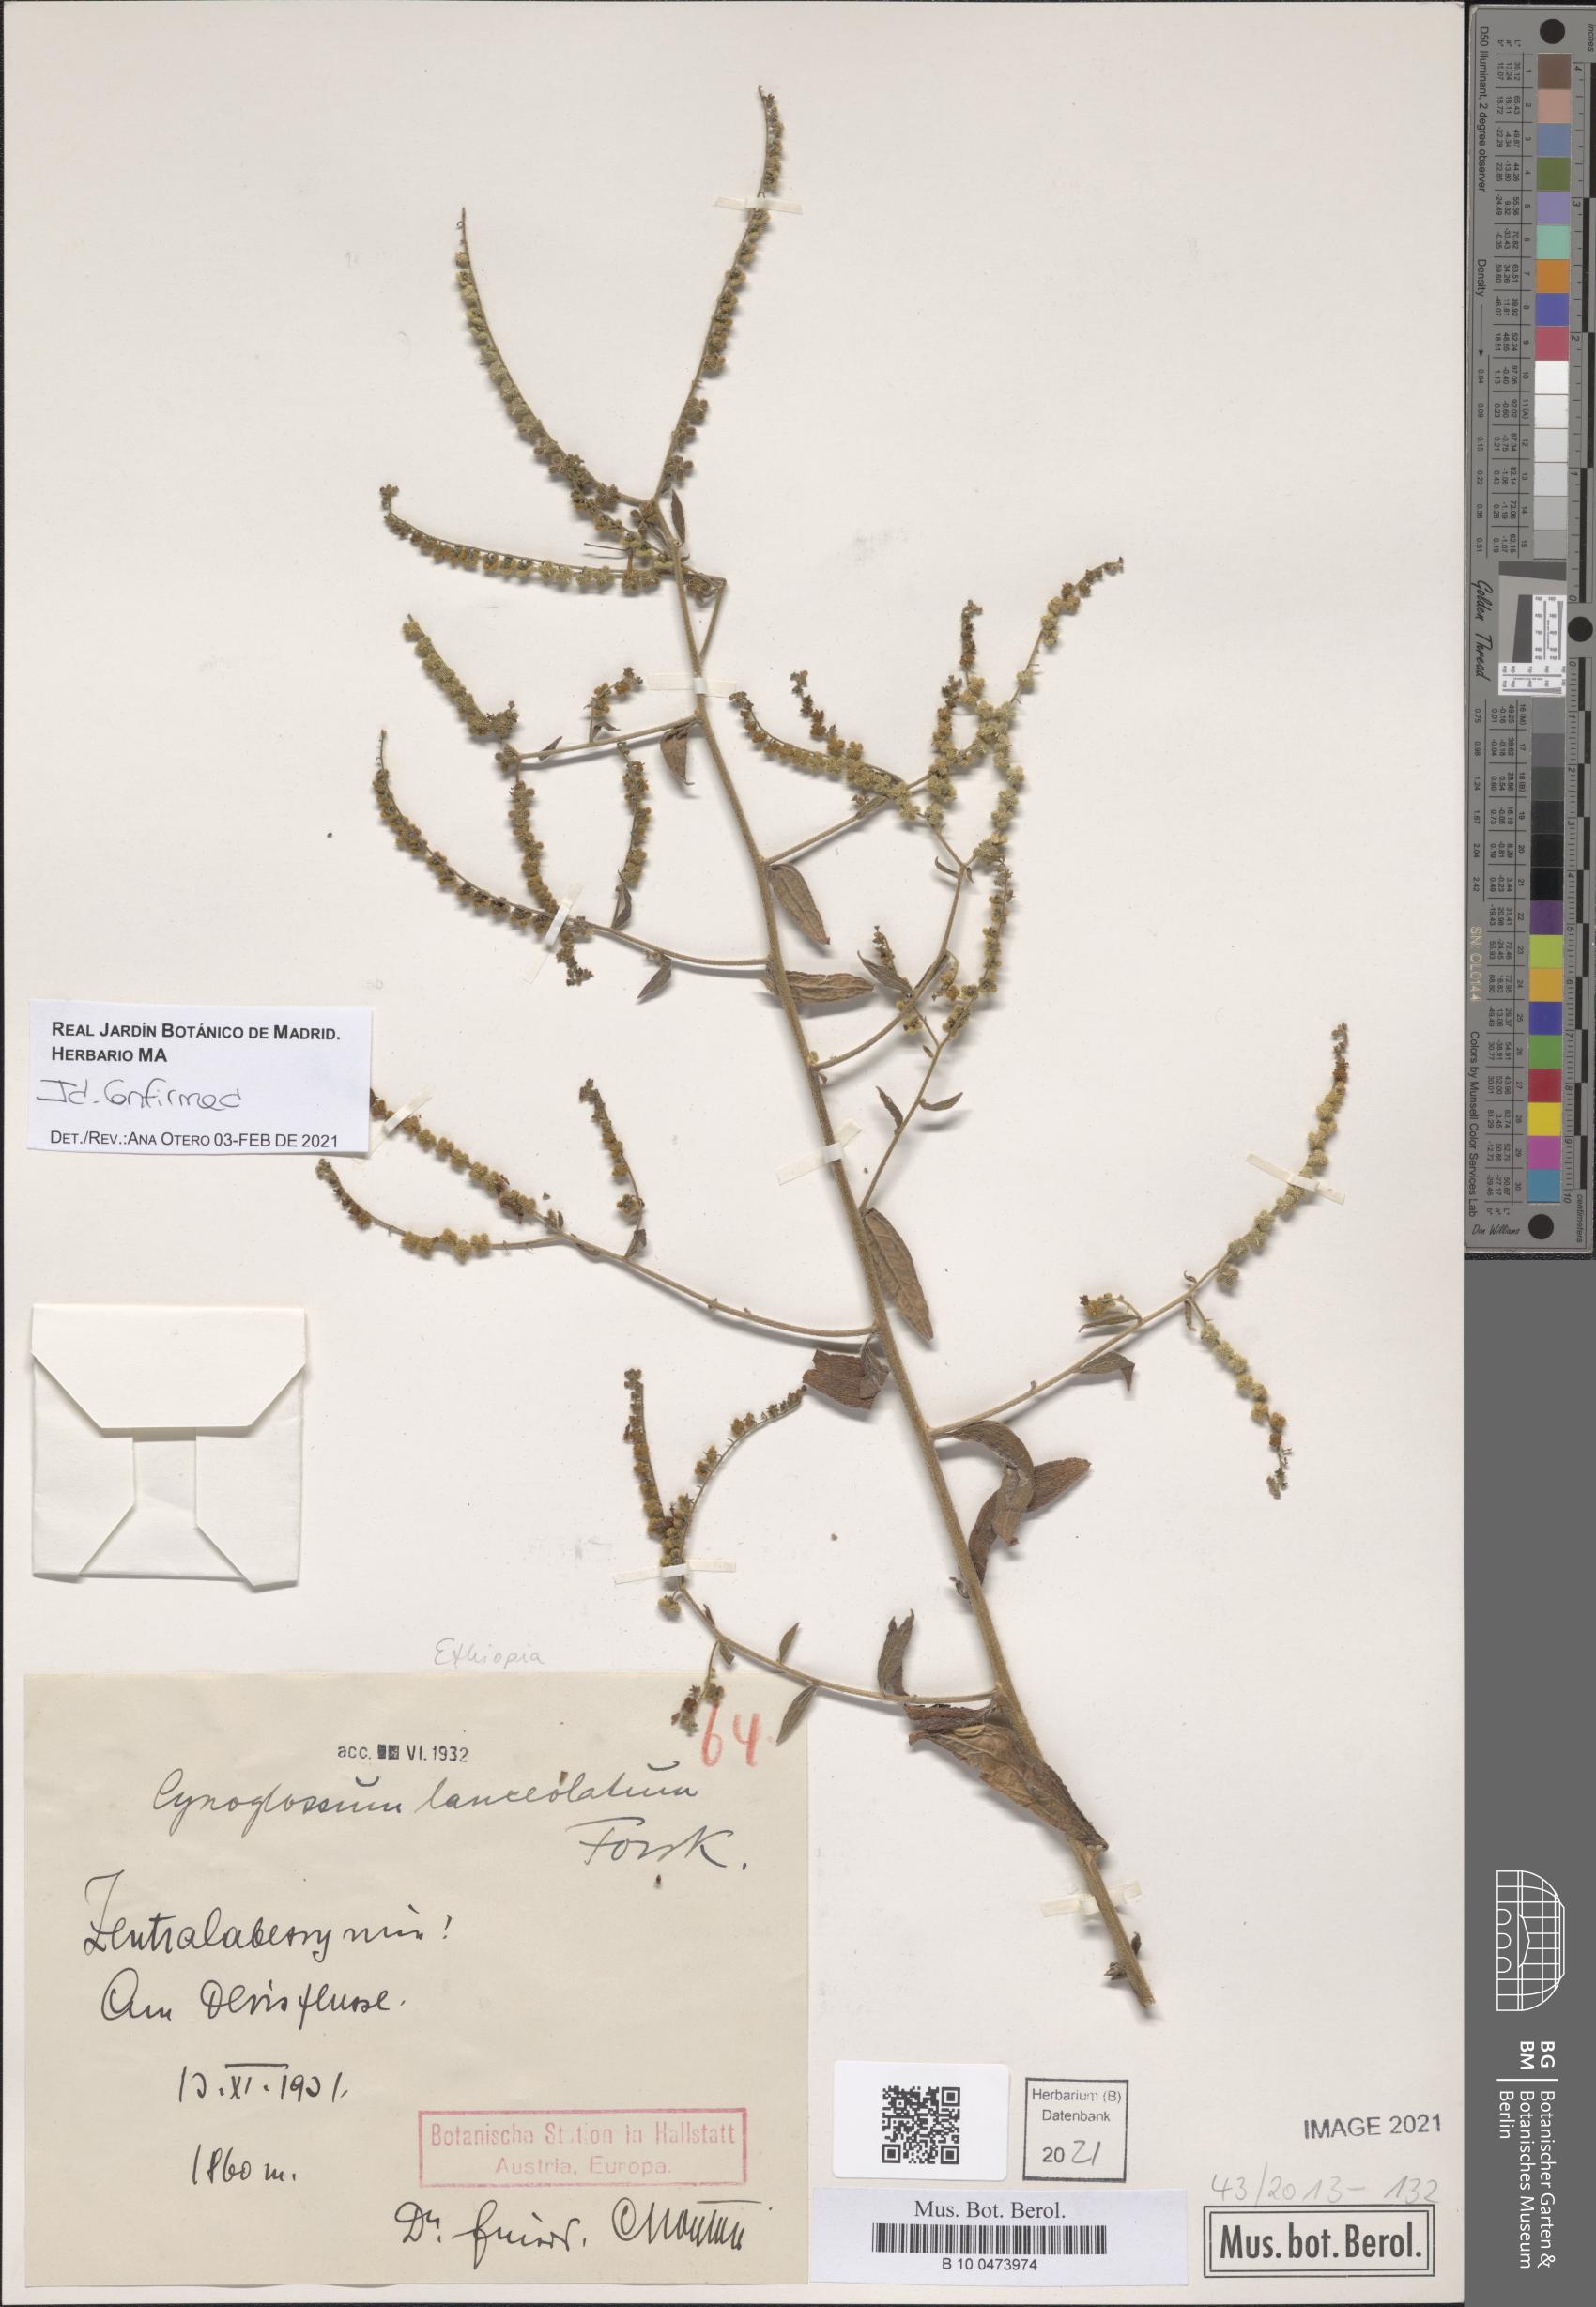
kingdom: Plantae
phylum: Tracheophyta
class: Magnoliopsida
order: Boraginales
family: Boraginaceae
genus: Paracynoglossum
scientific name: Paracynoglossum lanceolatum
